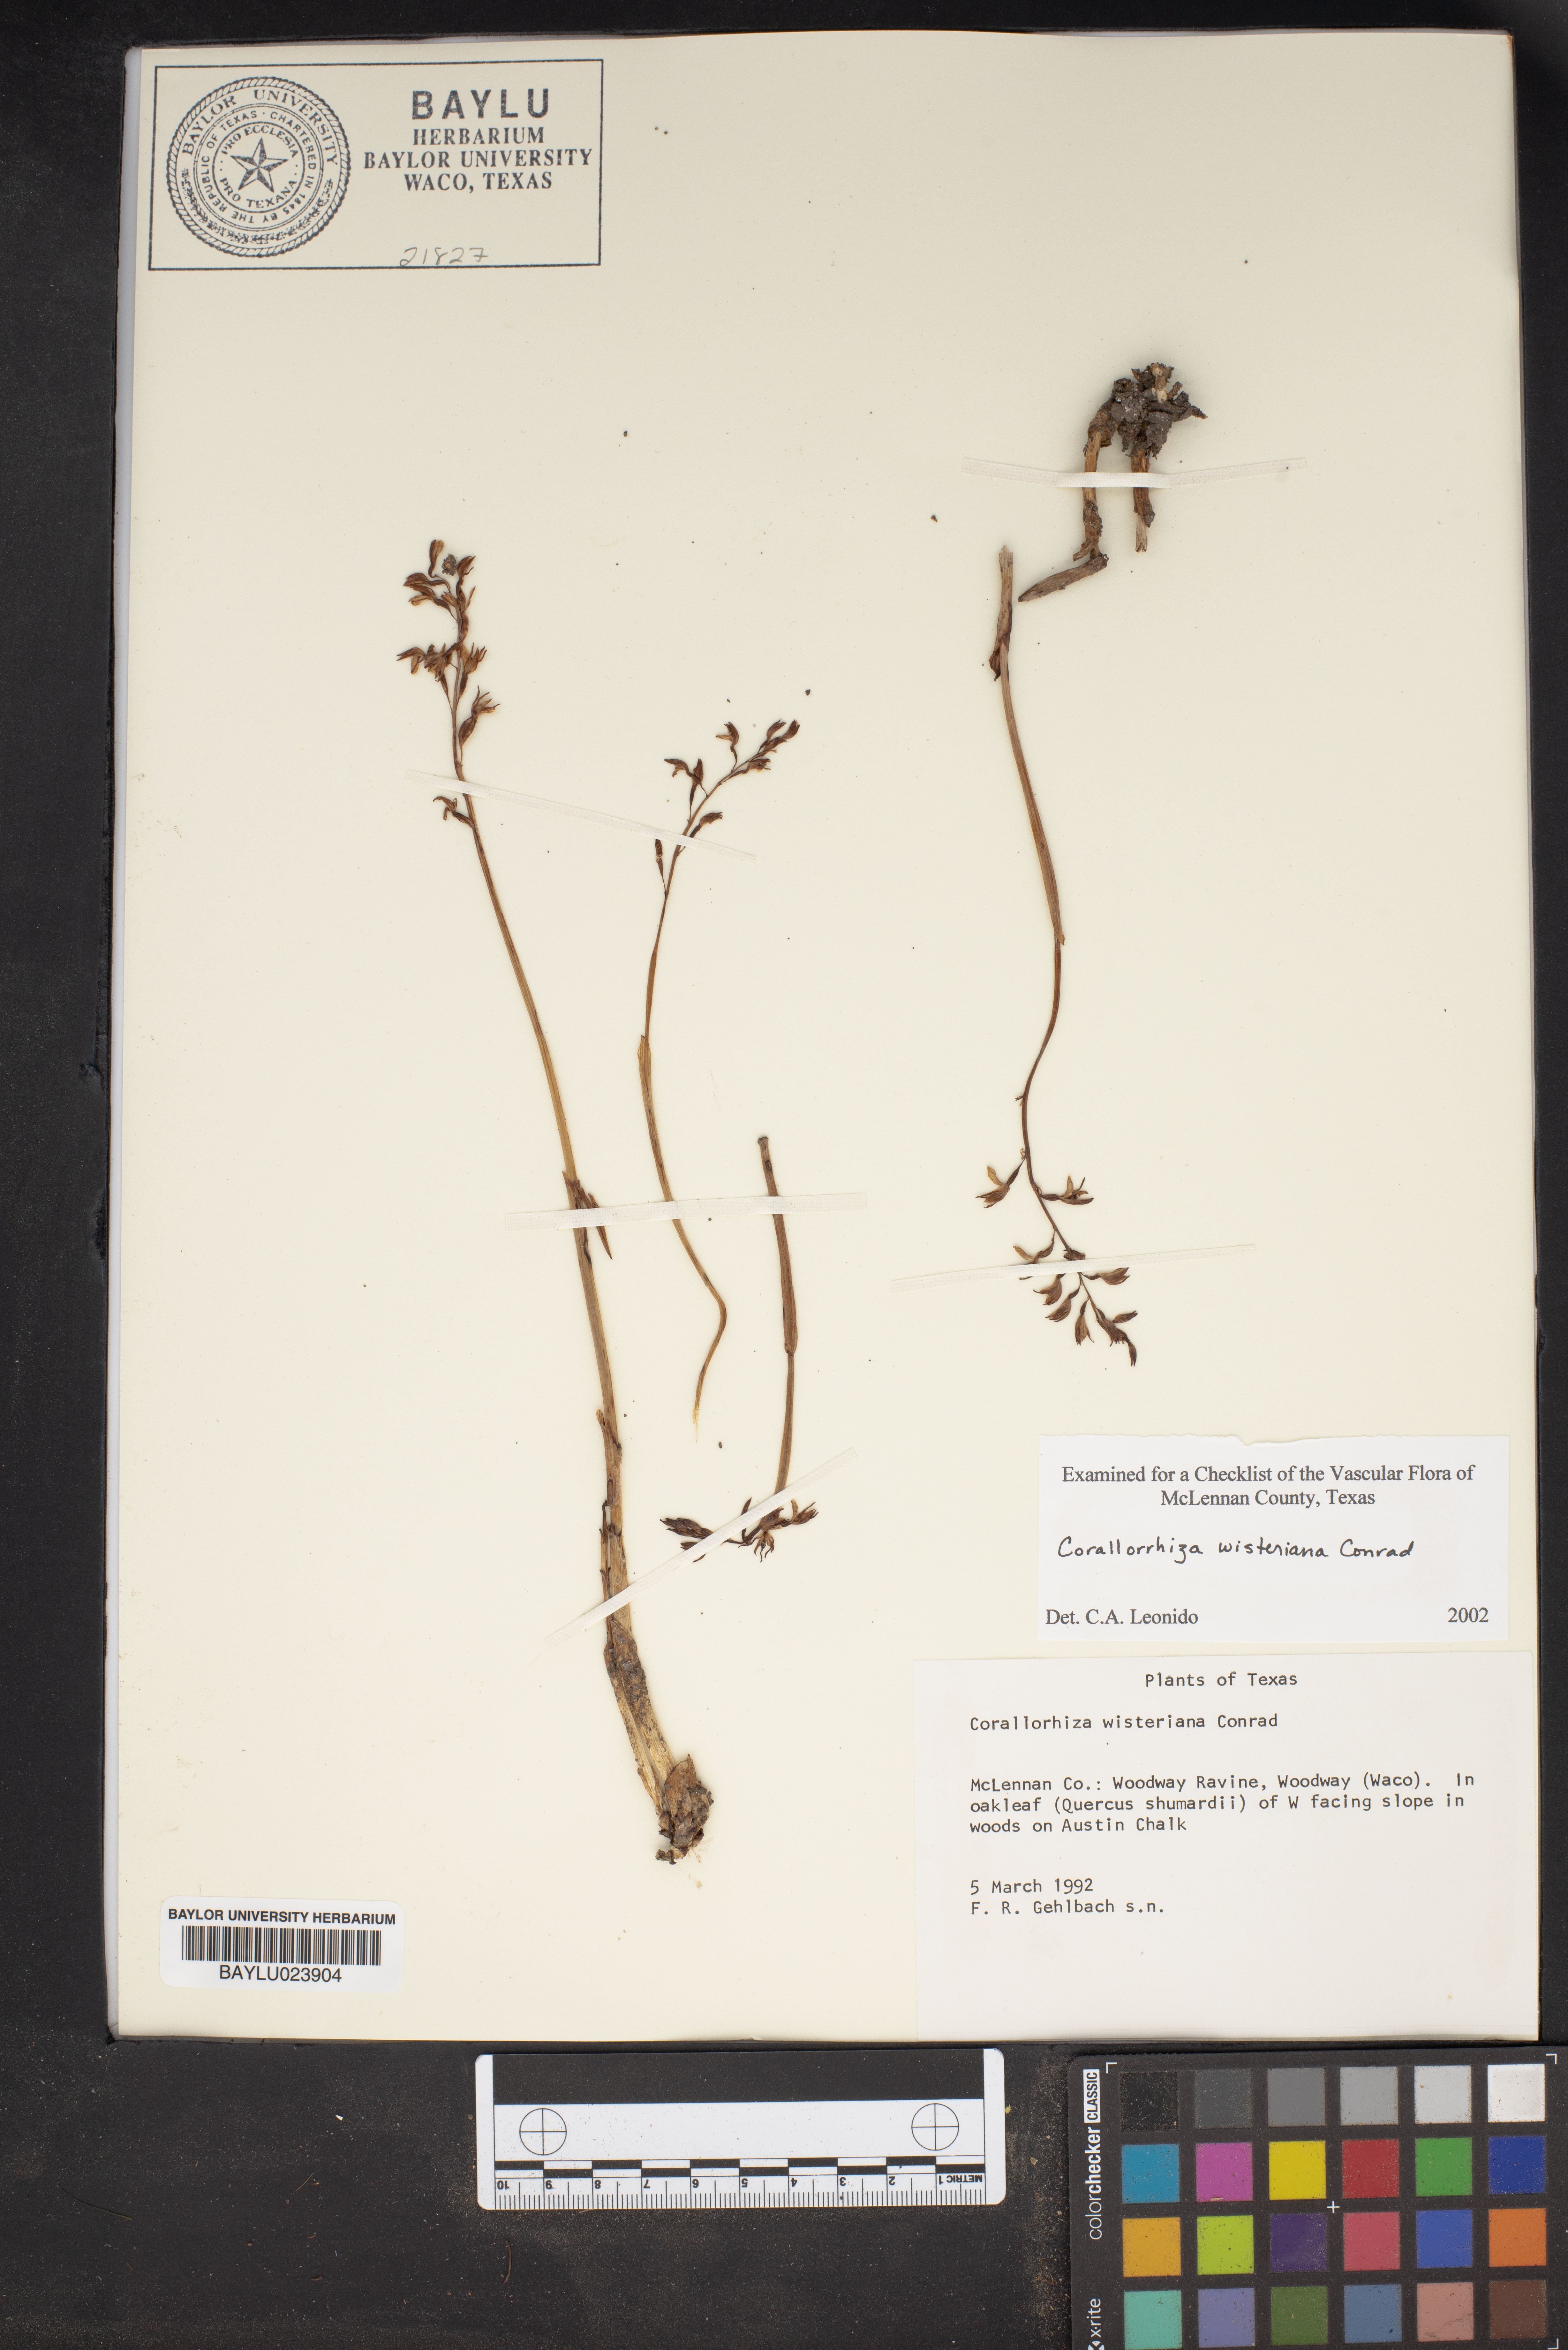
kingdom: Plantae
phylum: Tracheophyta
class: Liliopsida
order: Asparagales
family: Orchidaceae
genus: Corallorhiza
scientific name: Corallorhiza wisteriana
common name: Spring coralroot
